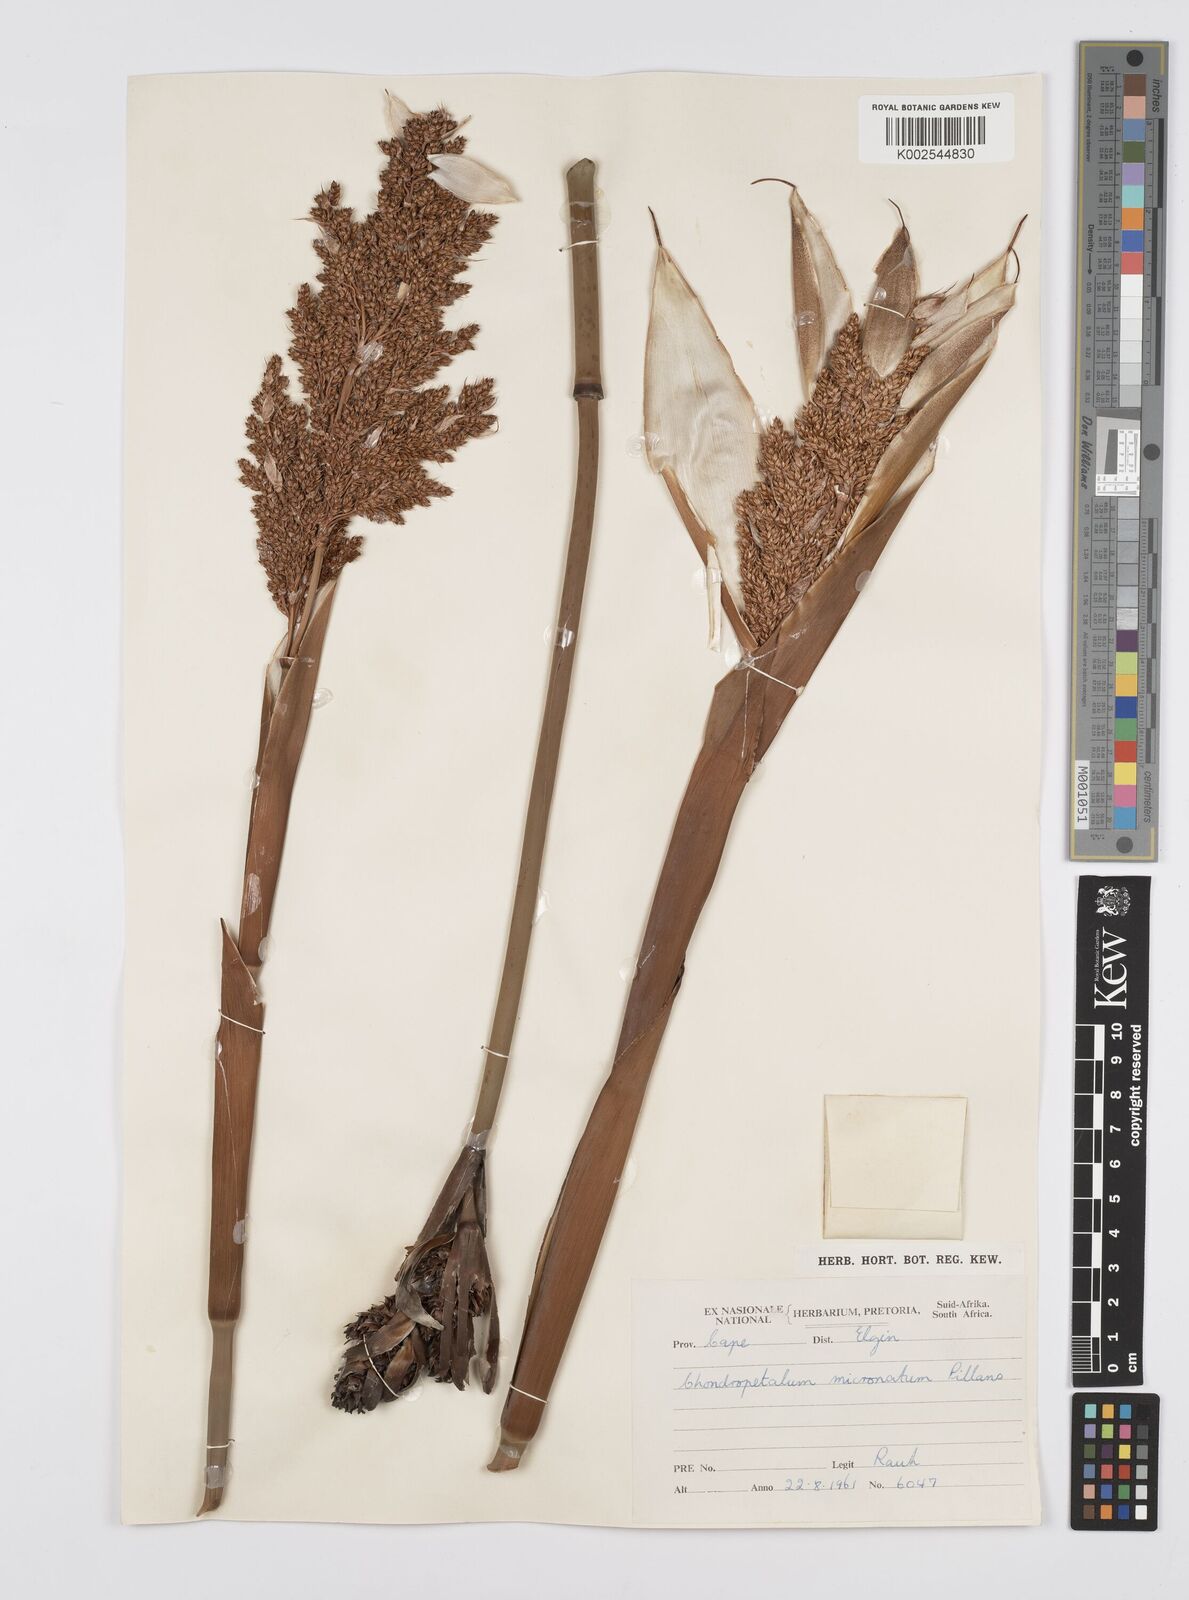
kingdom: Plantae
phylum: Tracheophyta
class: Liliopsida
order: Poales
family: Restionaceae
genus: Elegia
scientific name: Elegia
